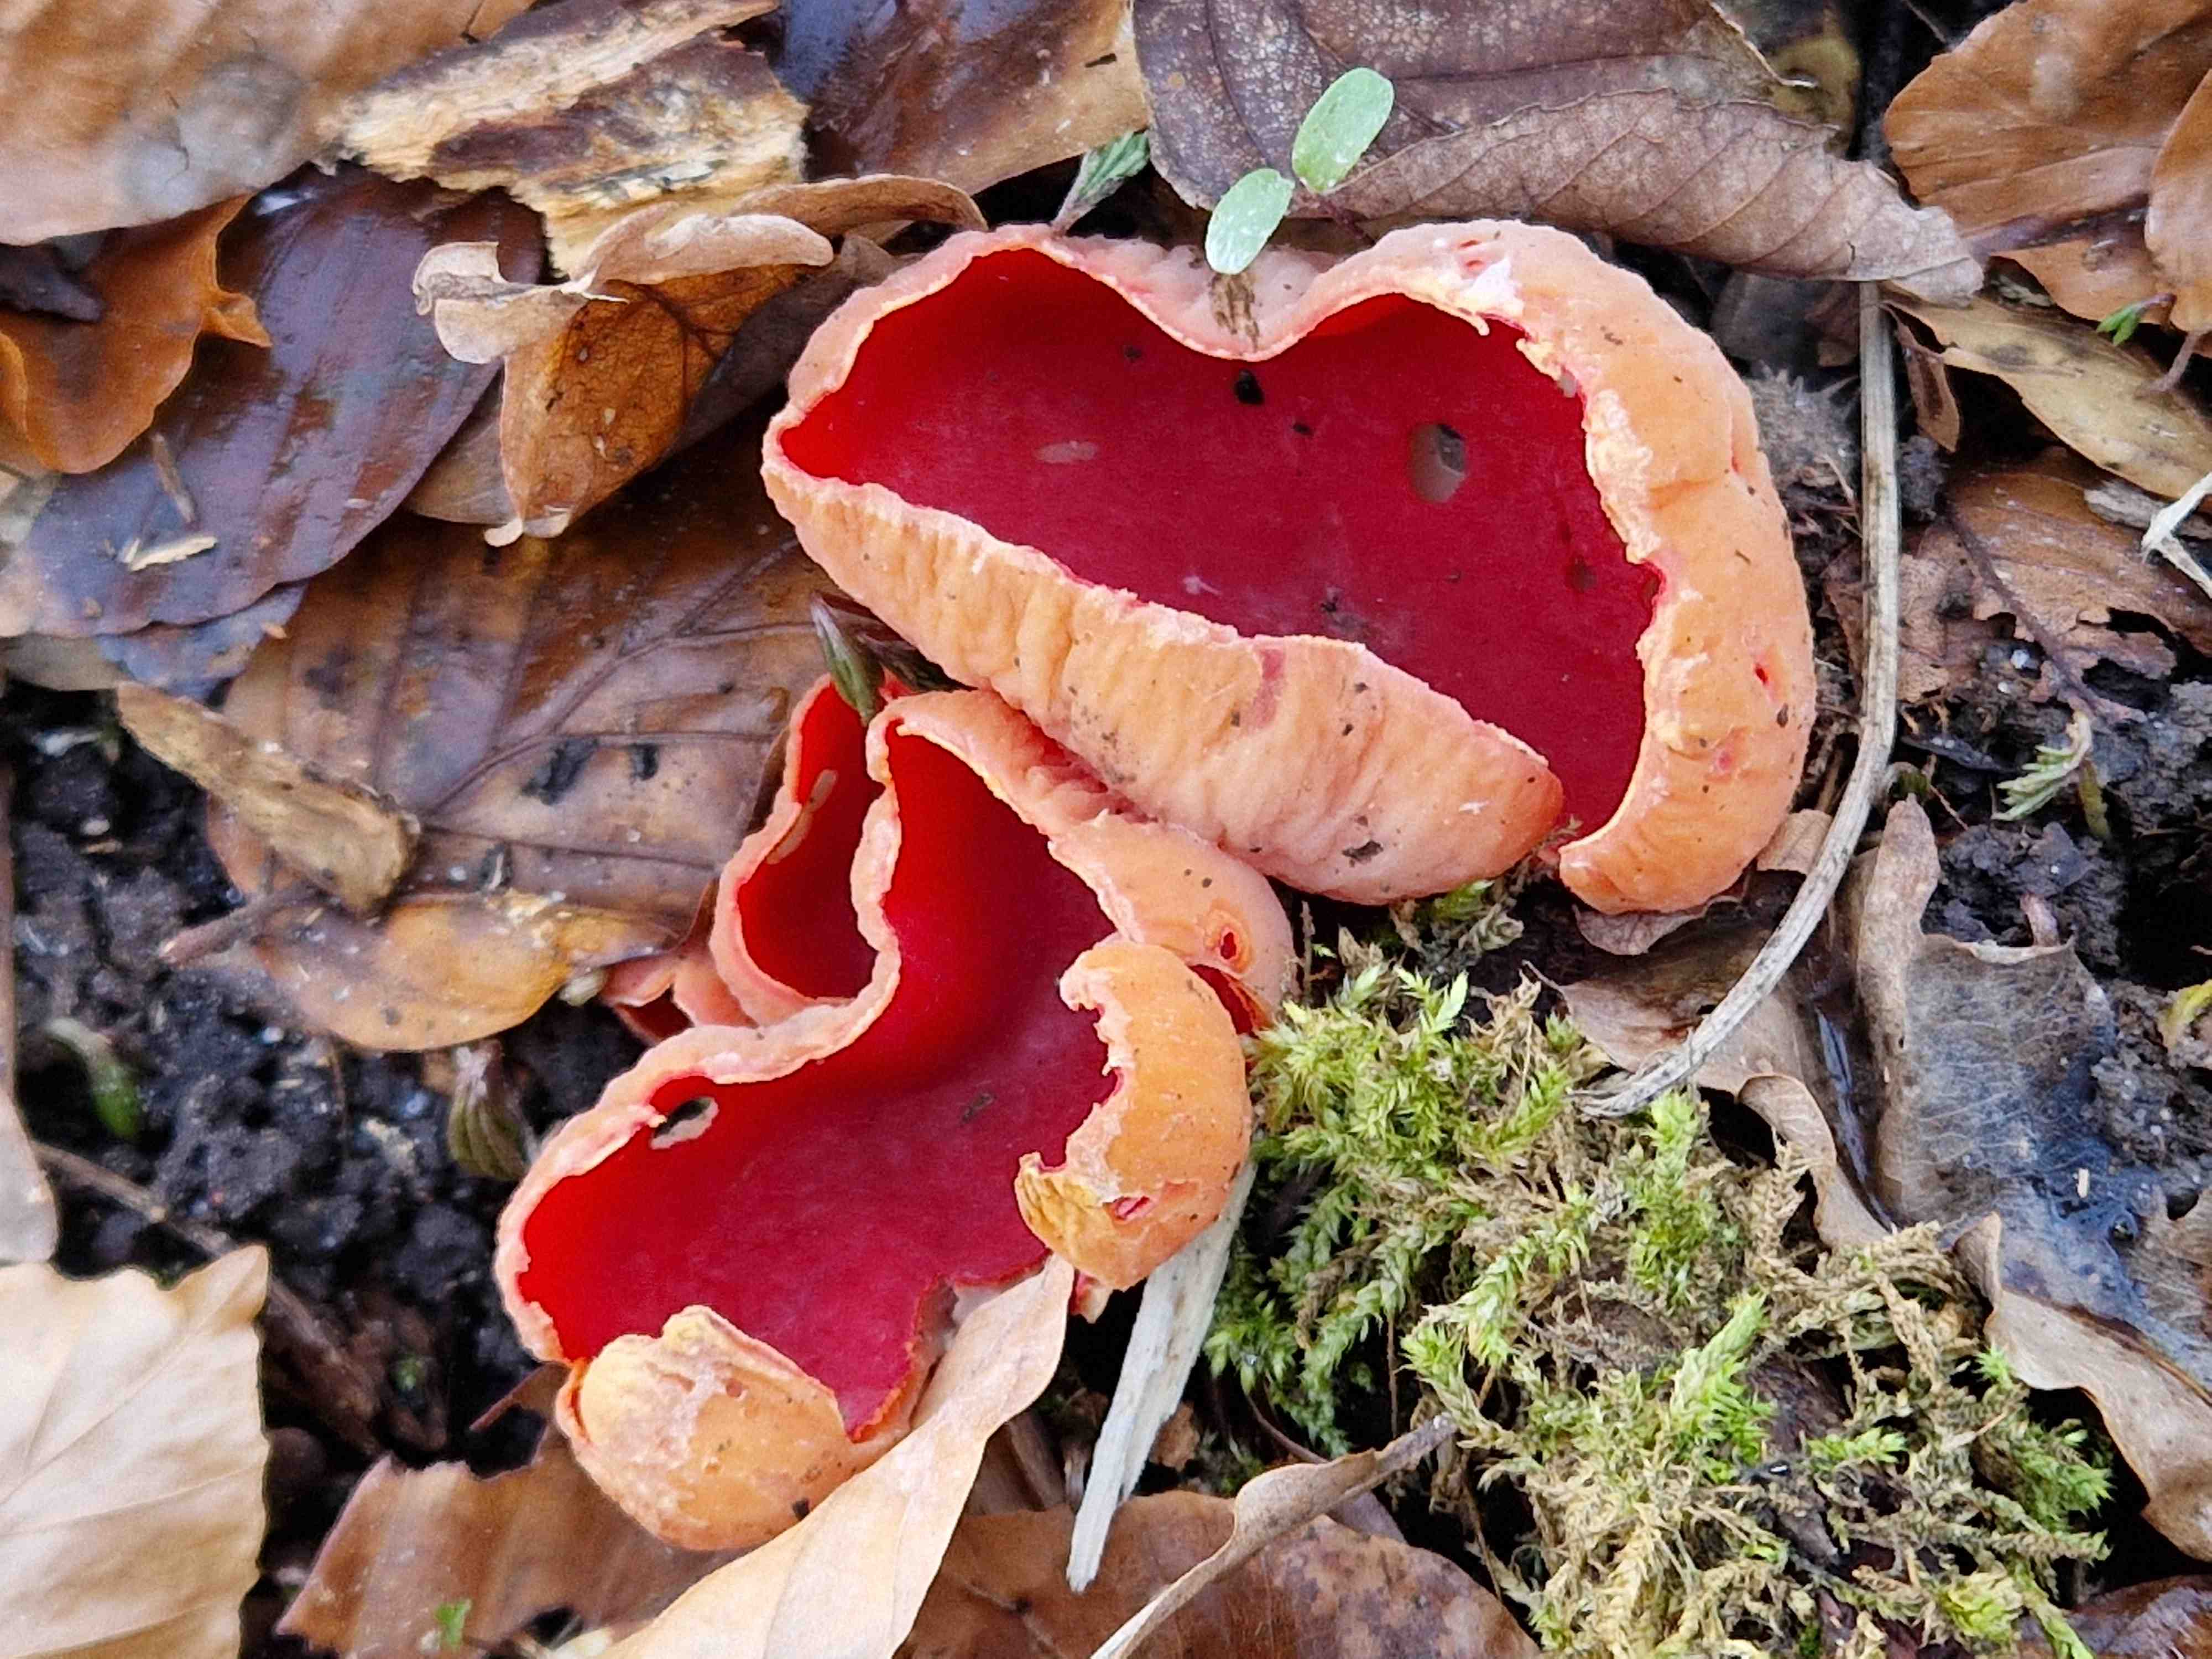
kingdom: Fungi
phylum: Ascomycota
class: Pezizomycetes
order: Pezizales
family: Sarcoscyphaceae
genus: Sarcoscypha
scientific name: Sarcoscypha austriaca
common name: krølhåret pragtbæger
